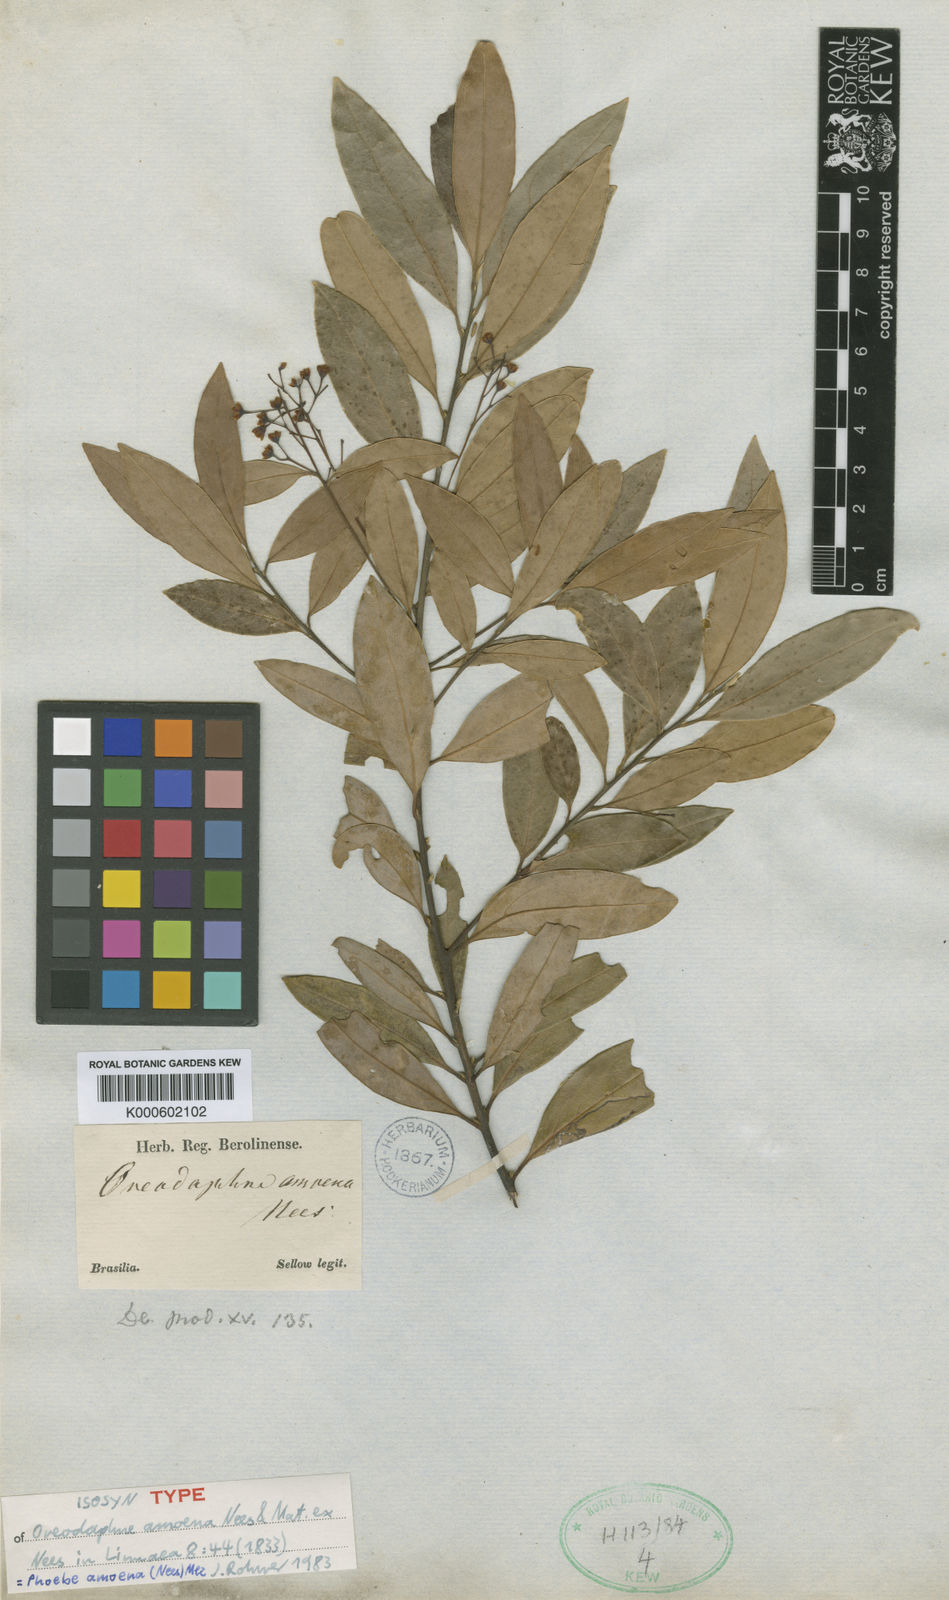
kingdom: Plantae
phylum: Tracheophyta
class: Magnoliopsida
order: Laurales
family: Lauraceae
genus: Aiouea
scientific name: Aiouea amoena
